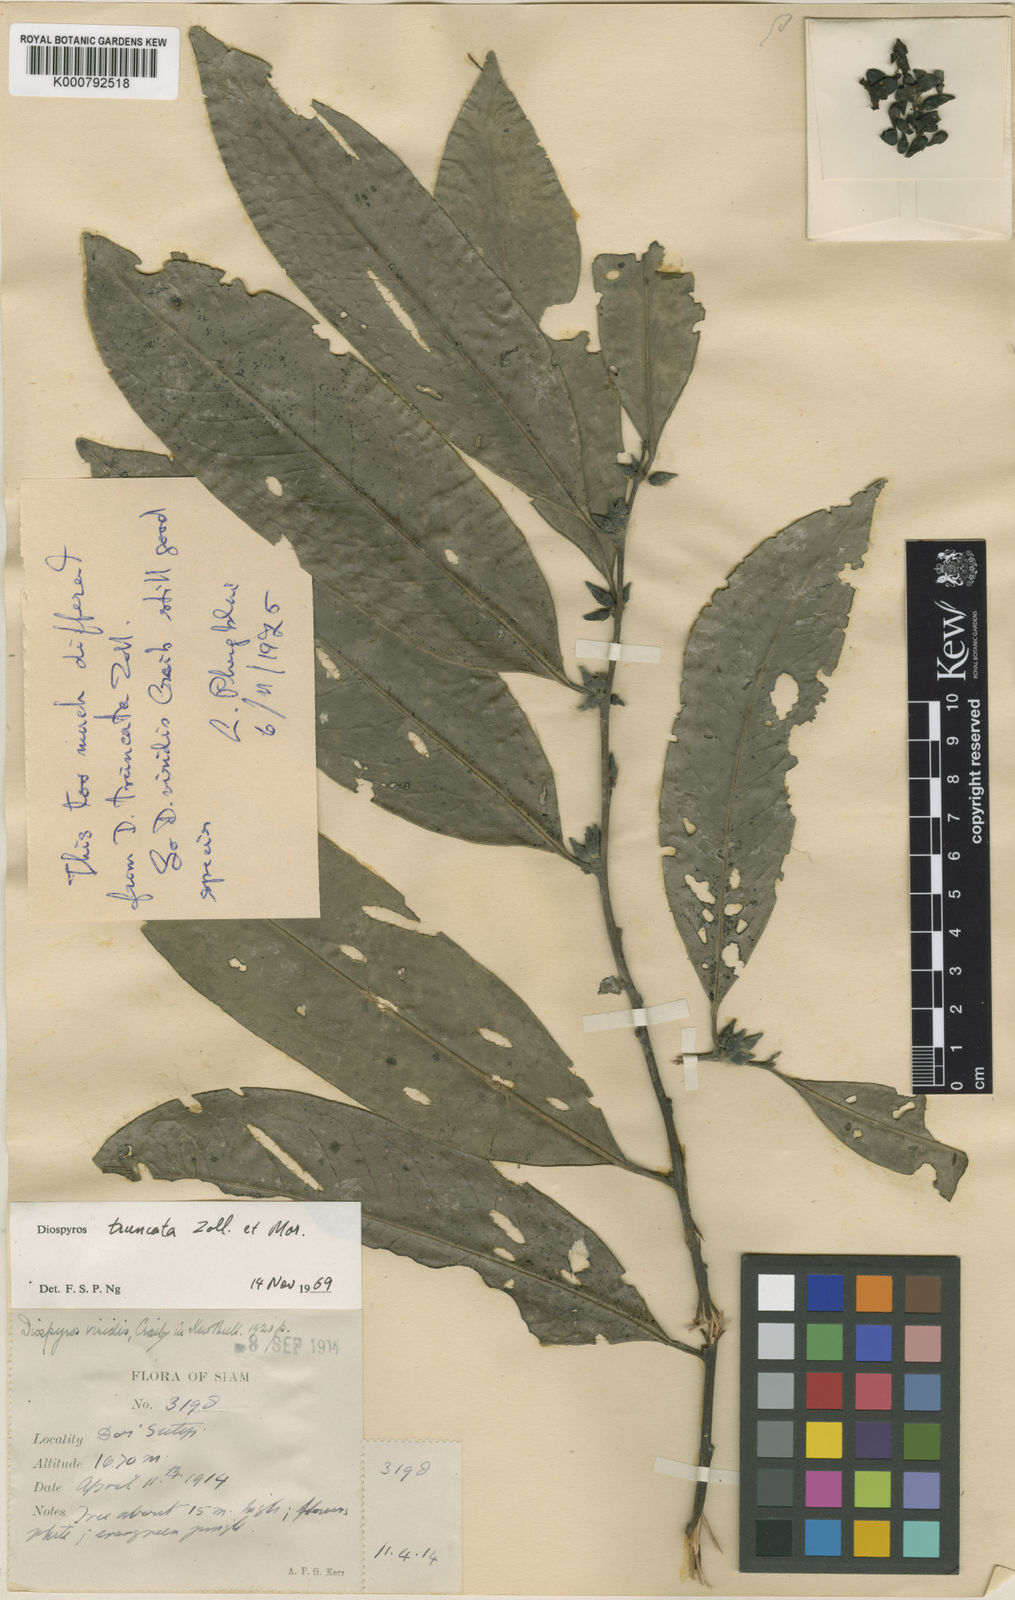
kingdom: Plantae
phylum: Tracheophyta
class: Magnoliopsida
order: Ericales
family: Ebenaceae
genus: Diospyros
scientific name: Diospyros truncata
